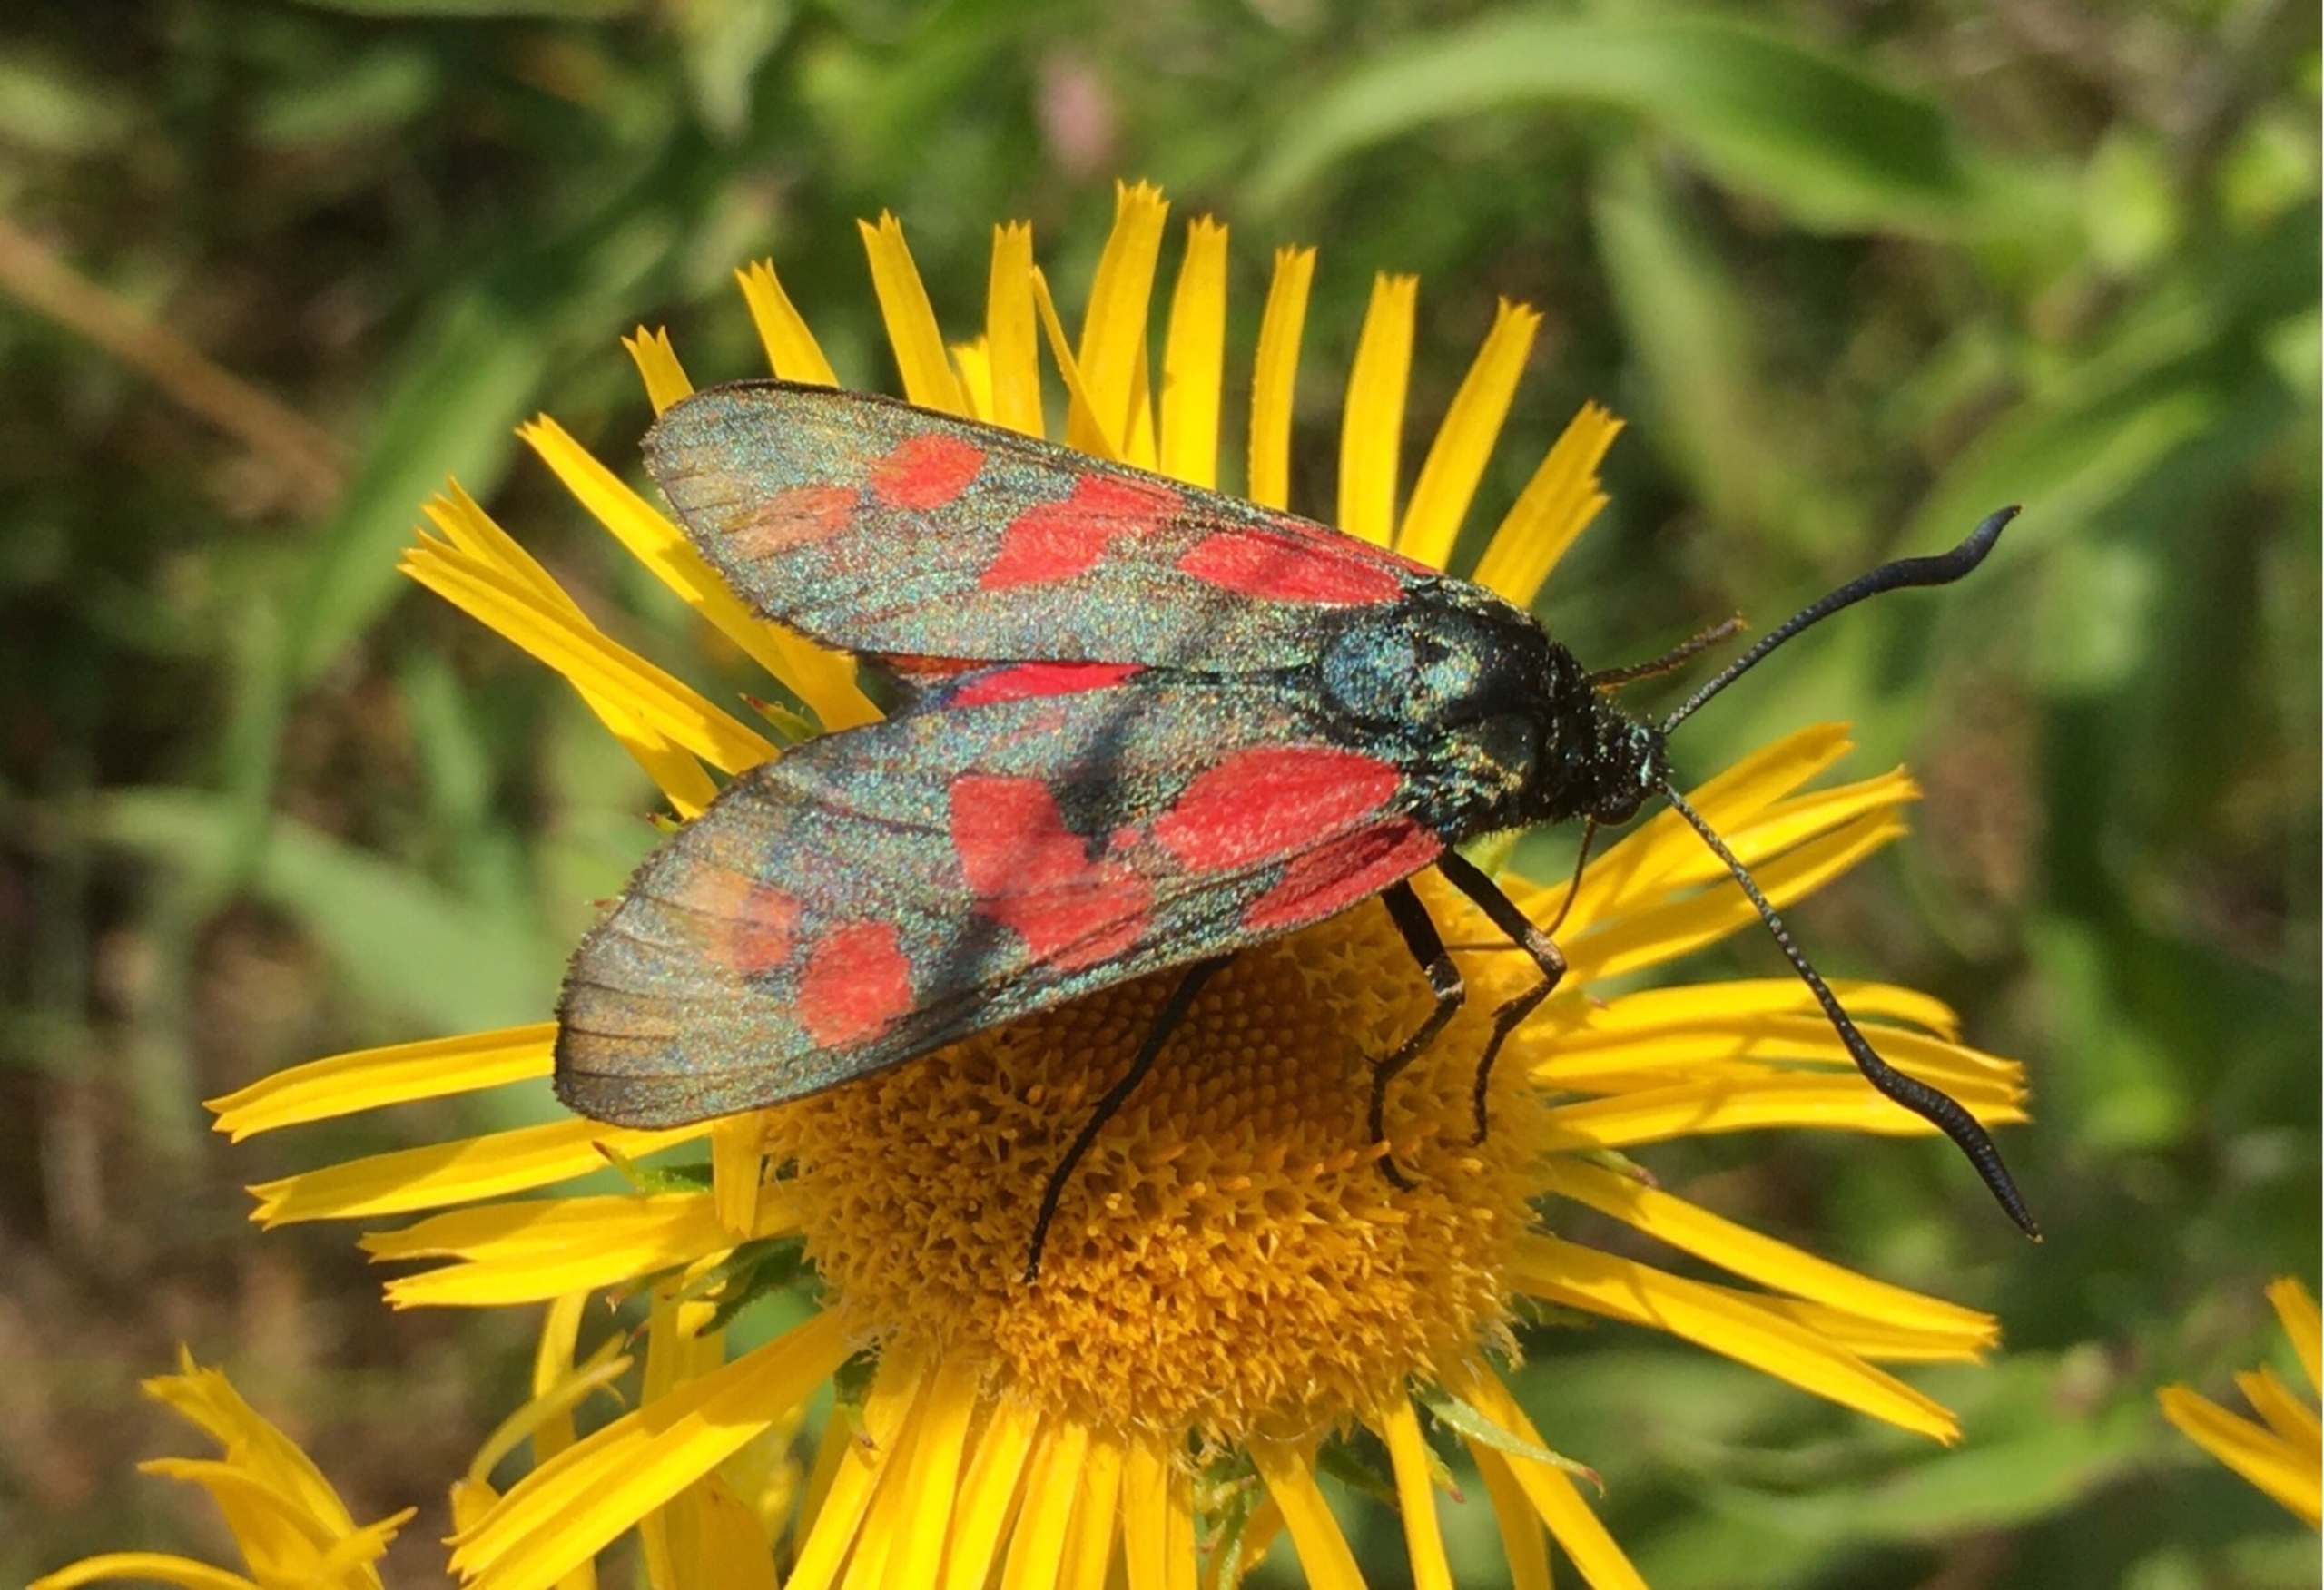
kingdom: Animalia
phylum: Arthropoda
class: Insecta
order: Lepidoptera
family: Zygaenidae
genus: Zygaena
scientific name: Zygaena filipendulae
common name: Seksplettet køllesværmer
